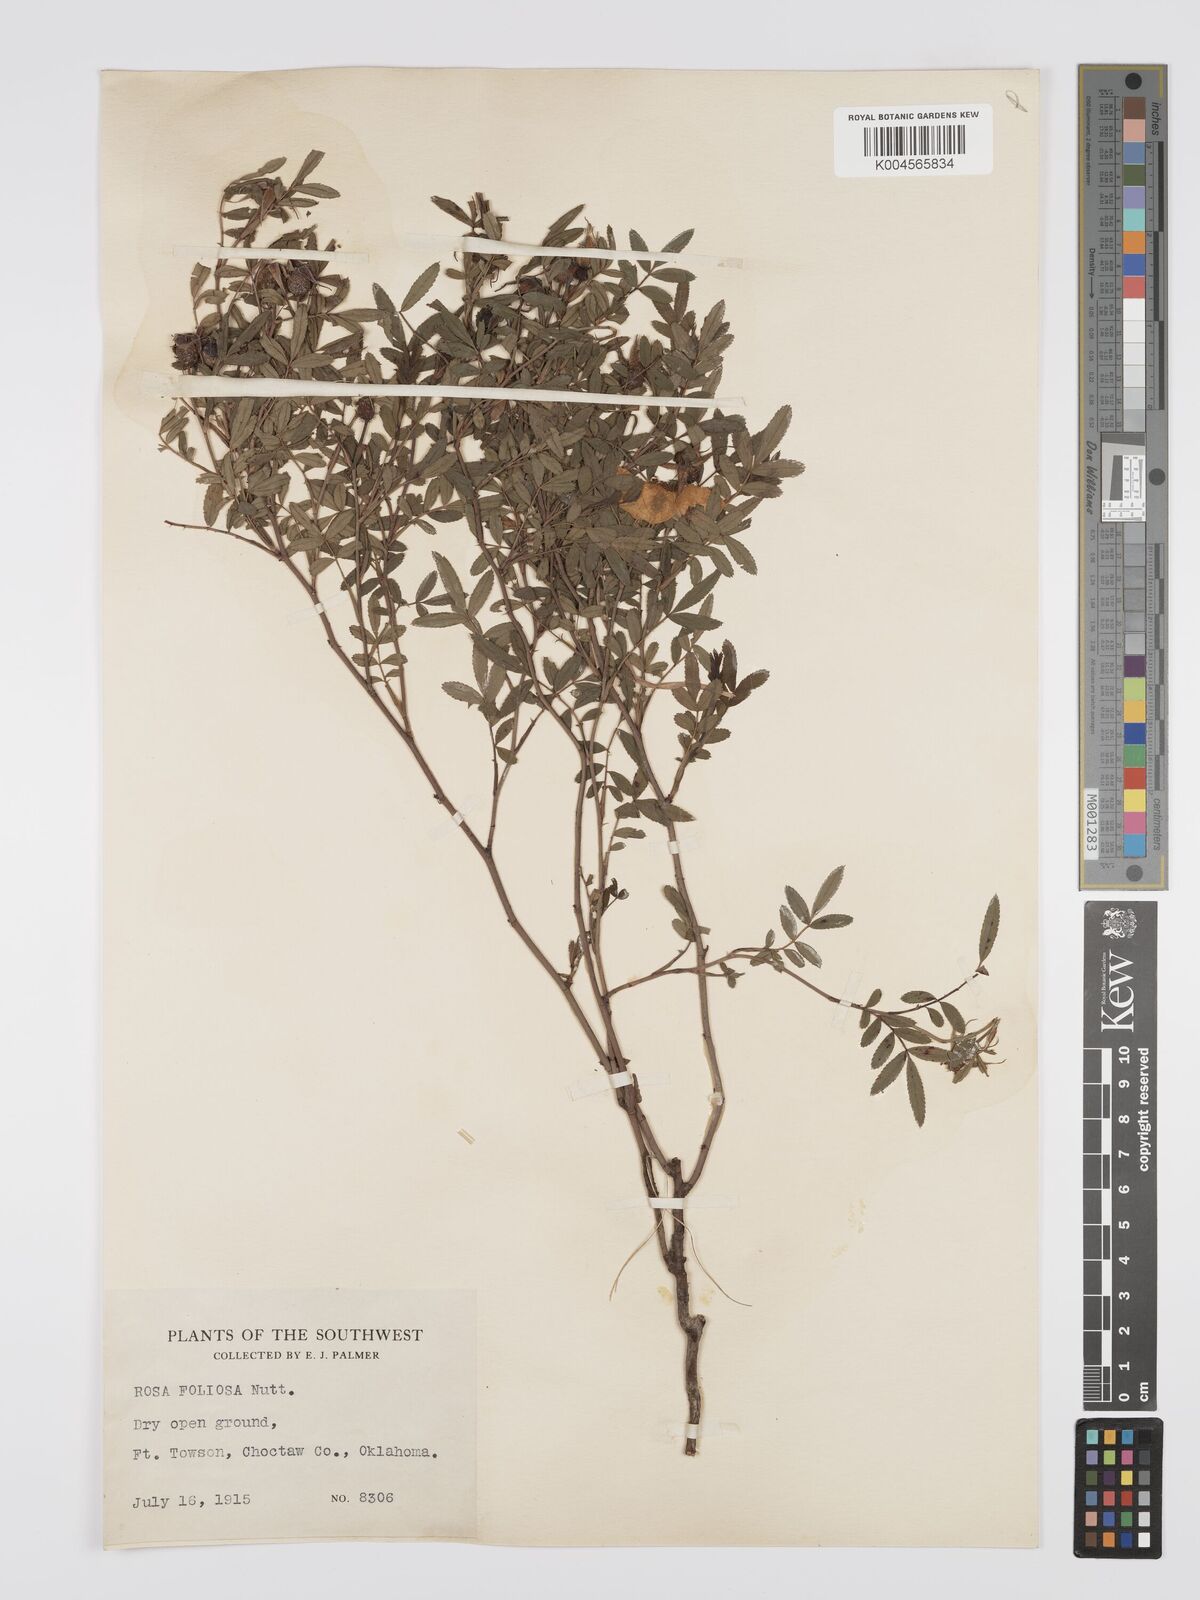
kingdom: Plantae
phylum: Tracheophyta
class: Magnoliopsida
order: Rosales
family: Rosaceae
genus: Rosa
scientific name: Rosa foliolosa
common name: White prairie rose
